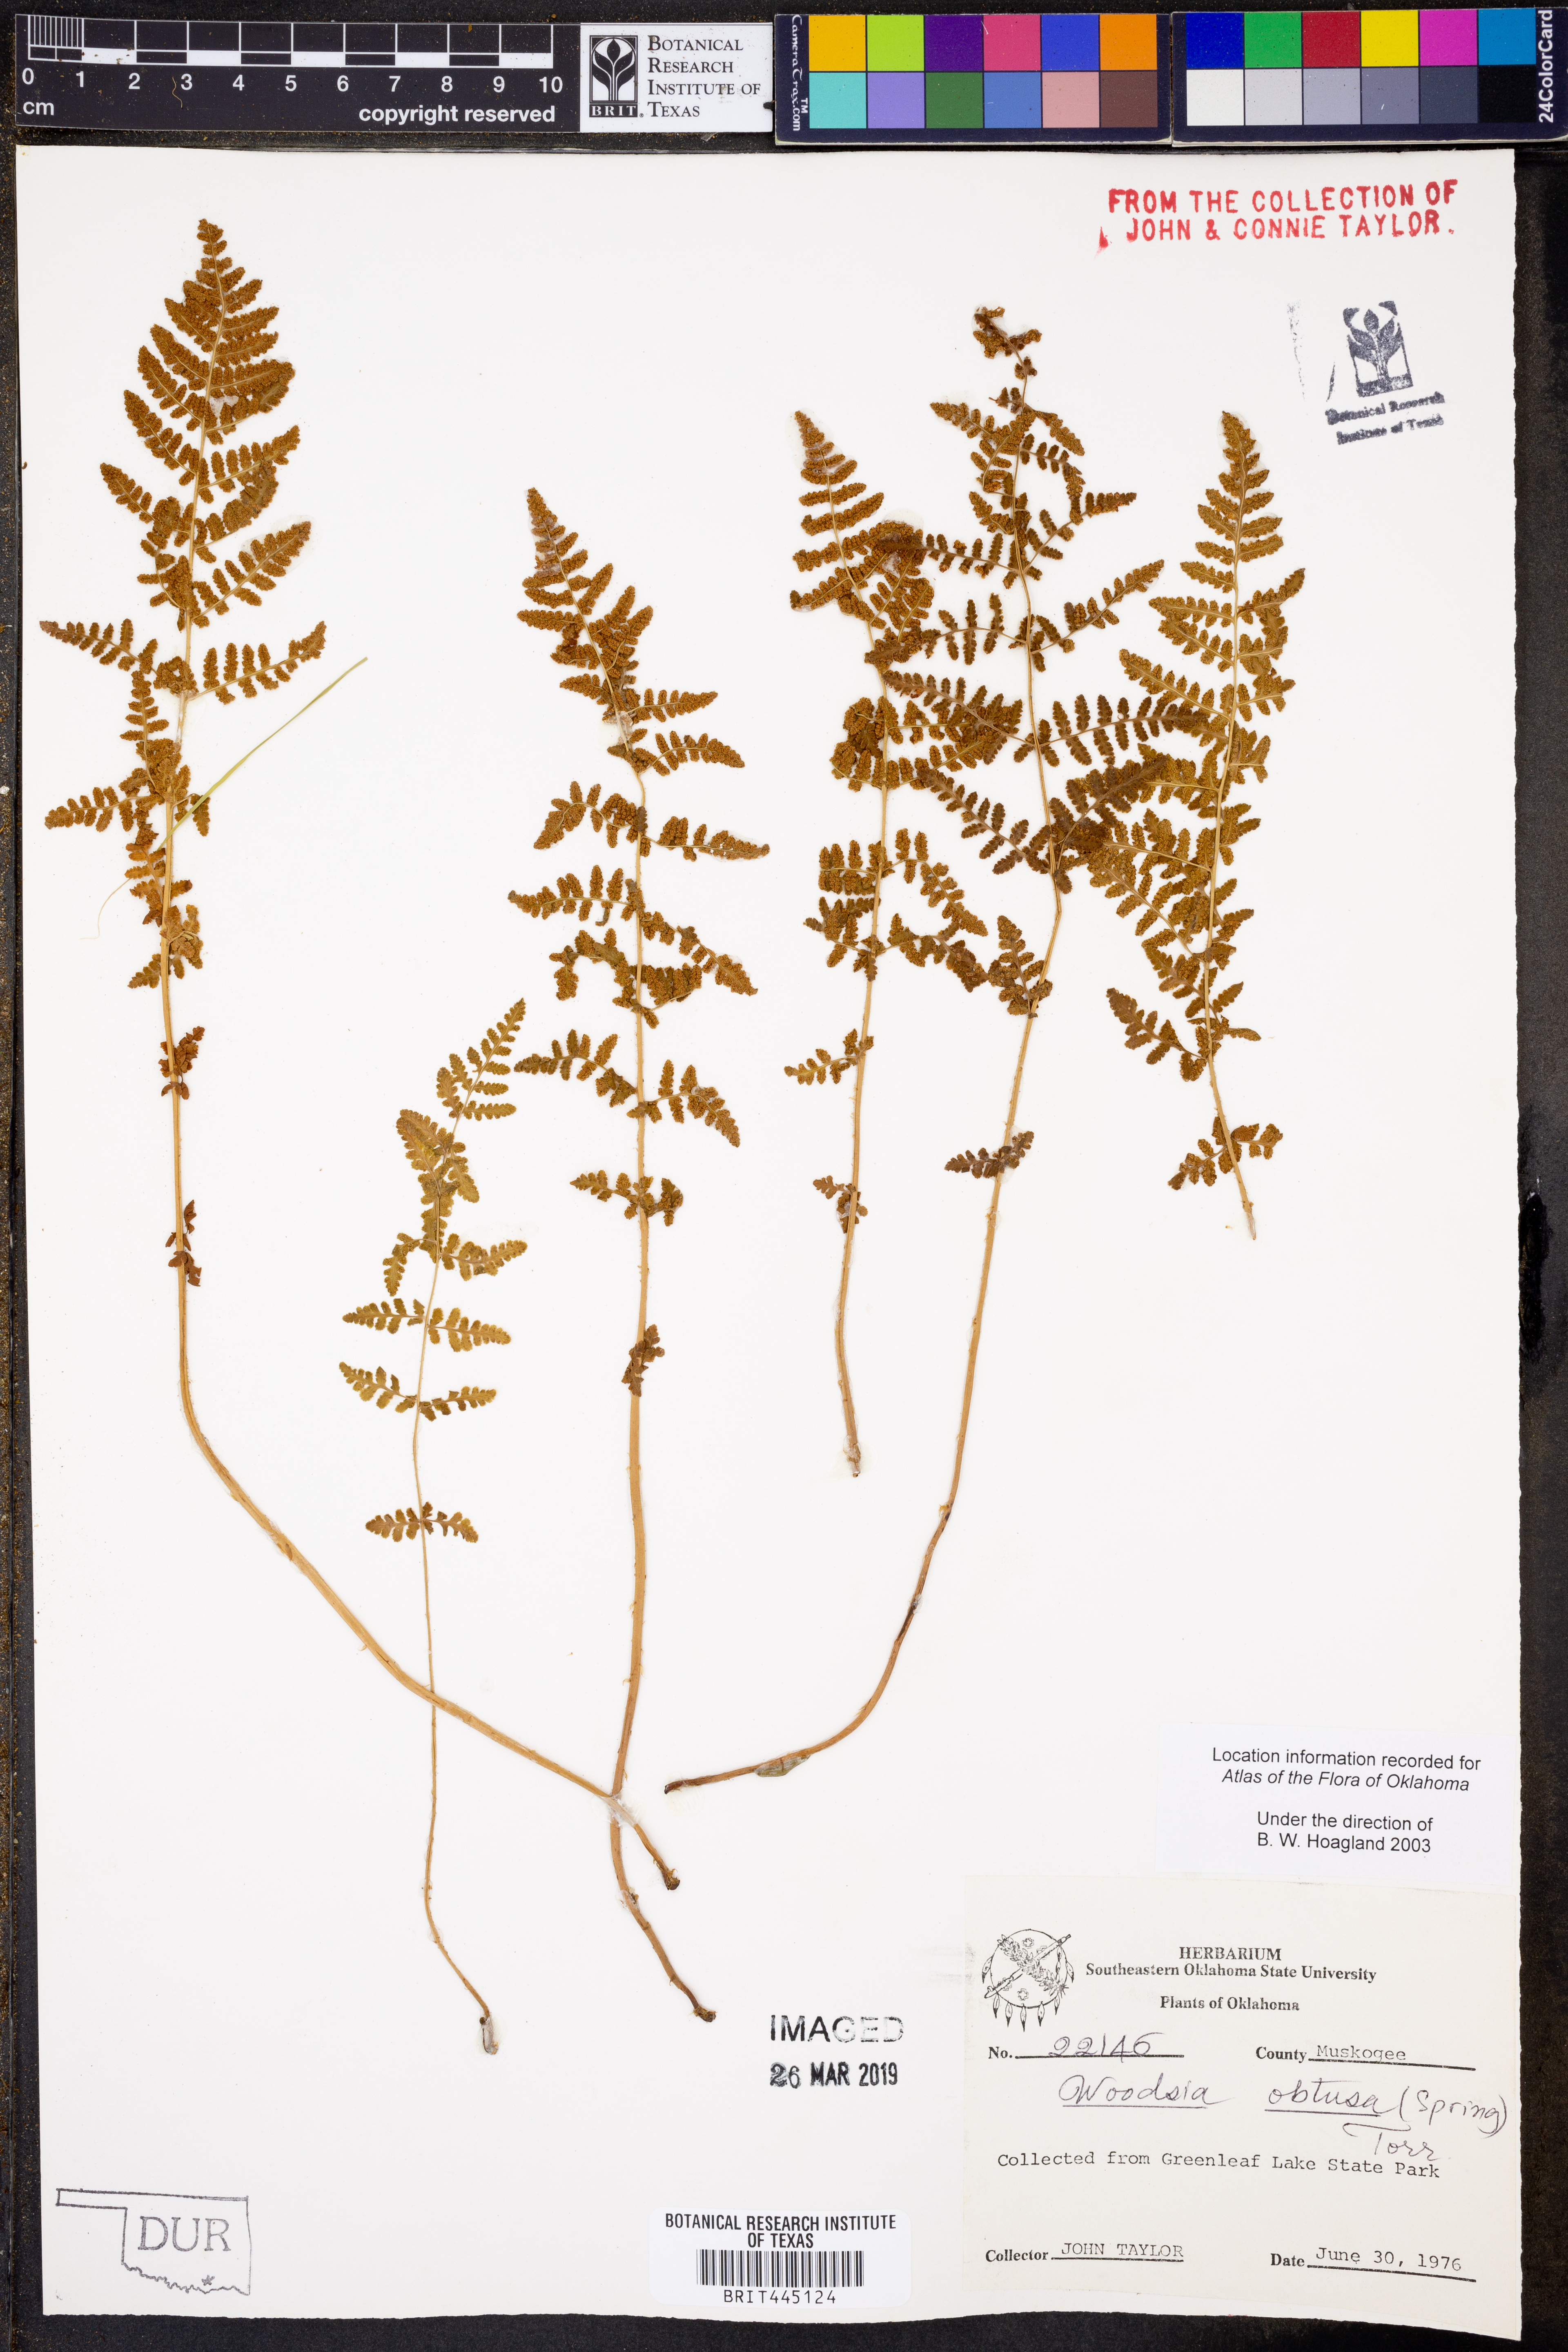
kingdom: Plantae
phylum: Tracheophyta
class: Polypodiopsida
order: Polypodiales
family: Woodsiaceae
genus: Physematium
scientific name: Physematium obtusum
